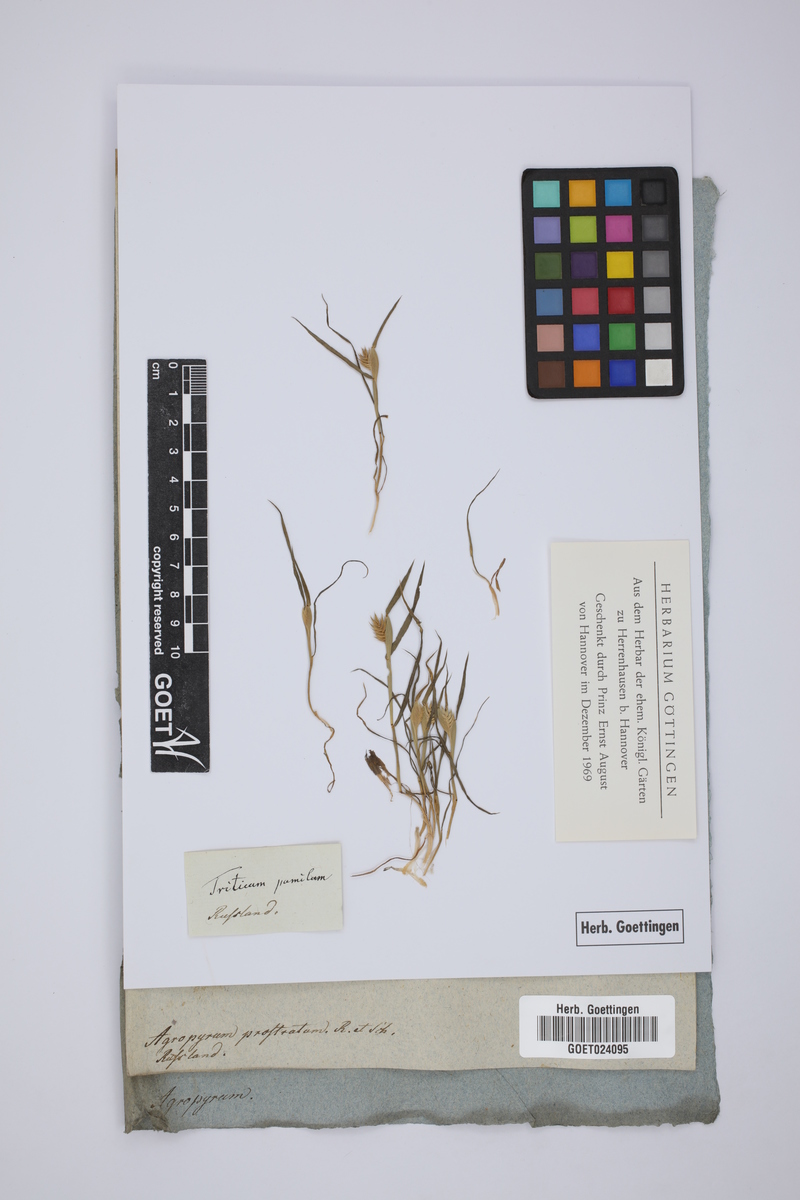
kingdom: Plantae
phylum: Tracheophyta
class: Liliopsida
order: Poales
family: Poaceae
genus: Eremopyrum
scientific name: Eremopyrum triticeum
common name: Annual wheatgrass
